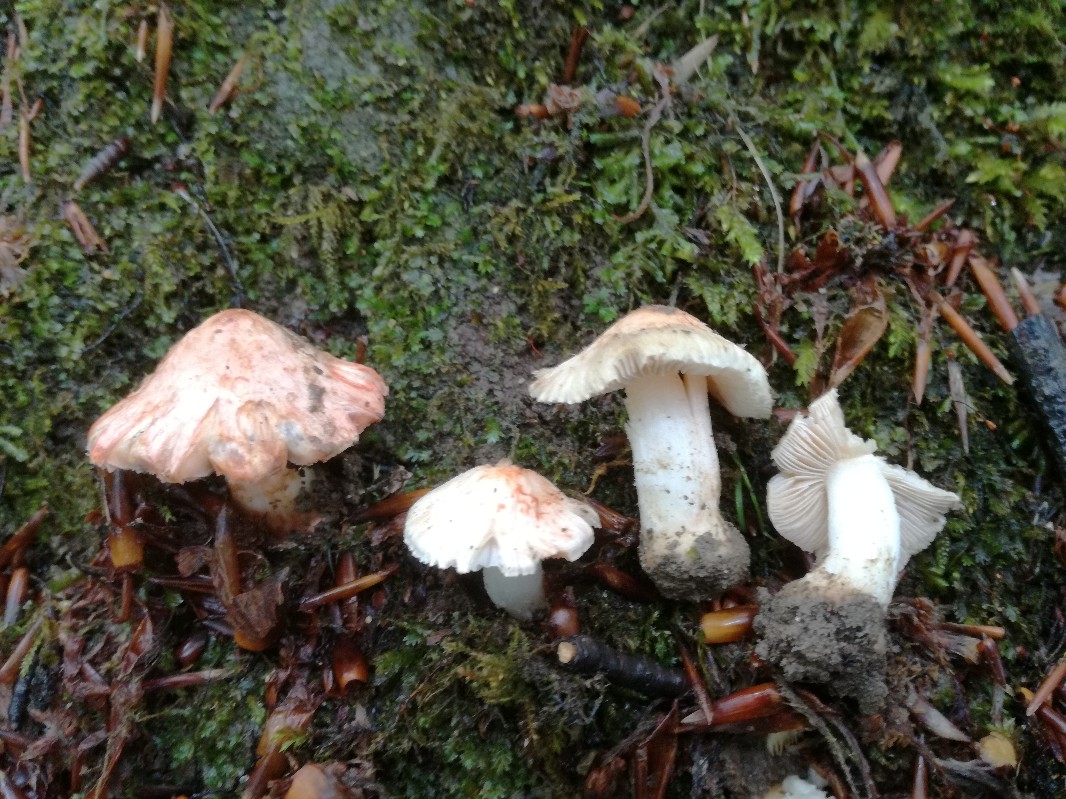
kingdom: Fungi
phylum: Basidiomycota
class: Agaricomycetes
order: Agaricales
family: Inocybaceae
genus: Inosperma
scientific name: Inosperma erubescens
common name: giftig trævlhat
